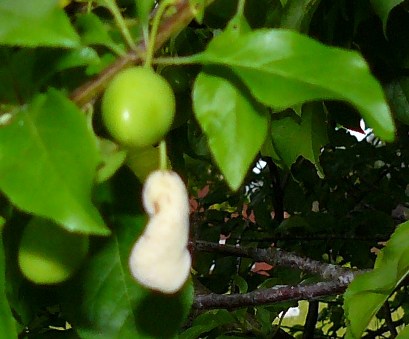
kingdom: Fungi
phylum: Ascomycota
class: Taphrinomycetes
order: Taphrinales
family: Taphrinaceae
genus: Taphrina
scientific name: Taphrina pruni
